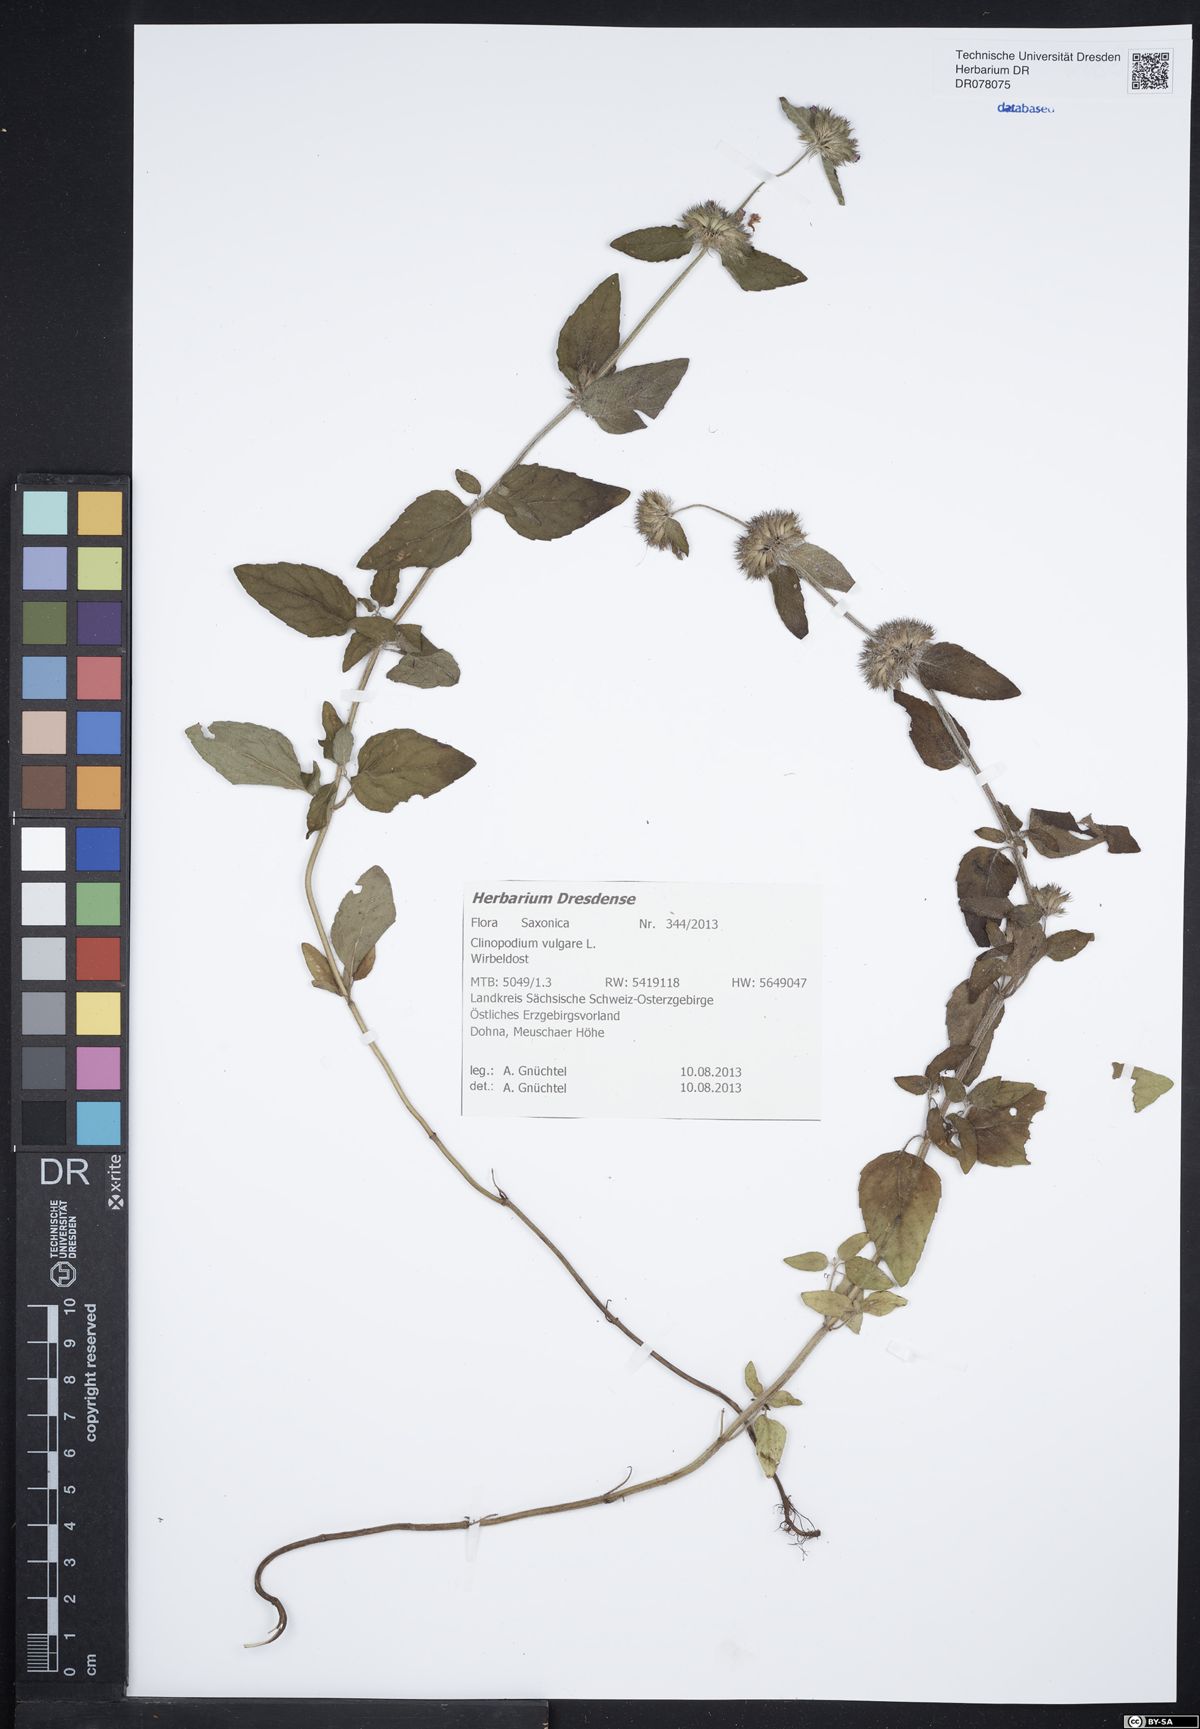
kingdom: Plantae
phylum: Tracheophyta
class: Magnoliopsida
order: Lamiales
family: Lamiaceae
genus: Clinopodium
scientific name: Clinopodium vulgare
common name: Wild basil
